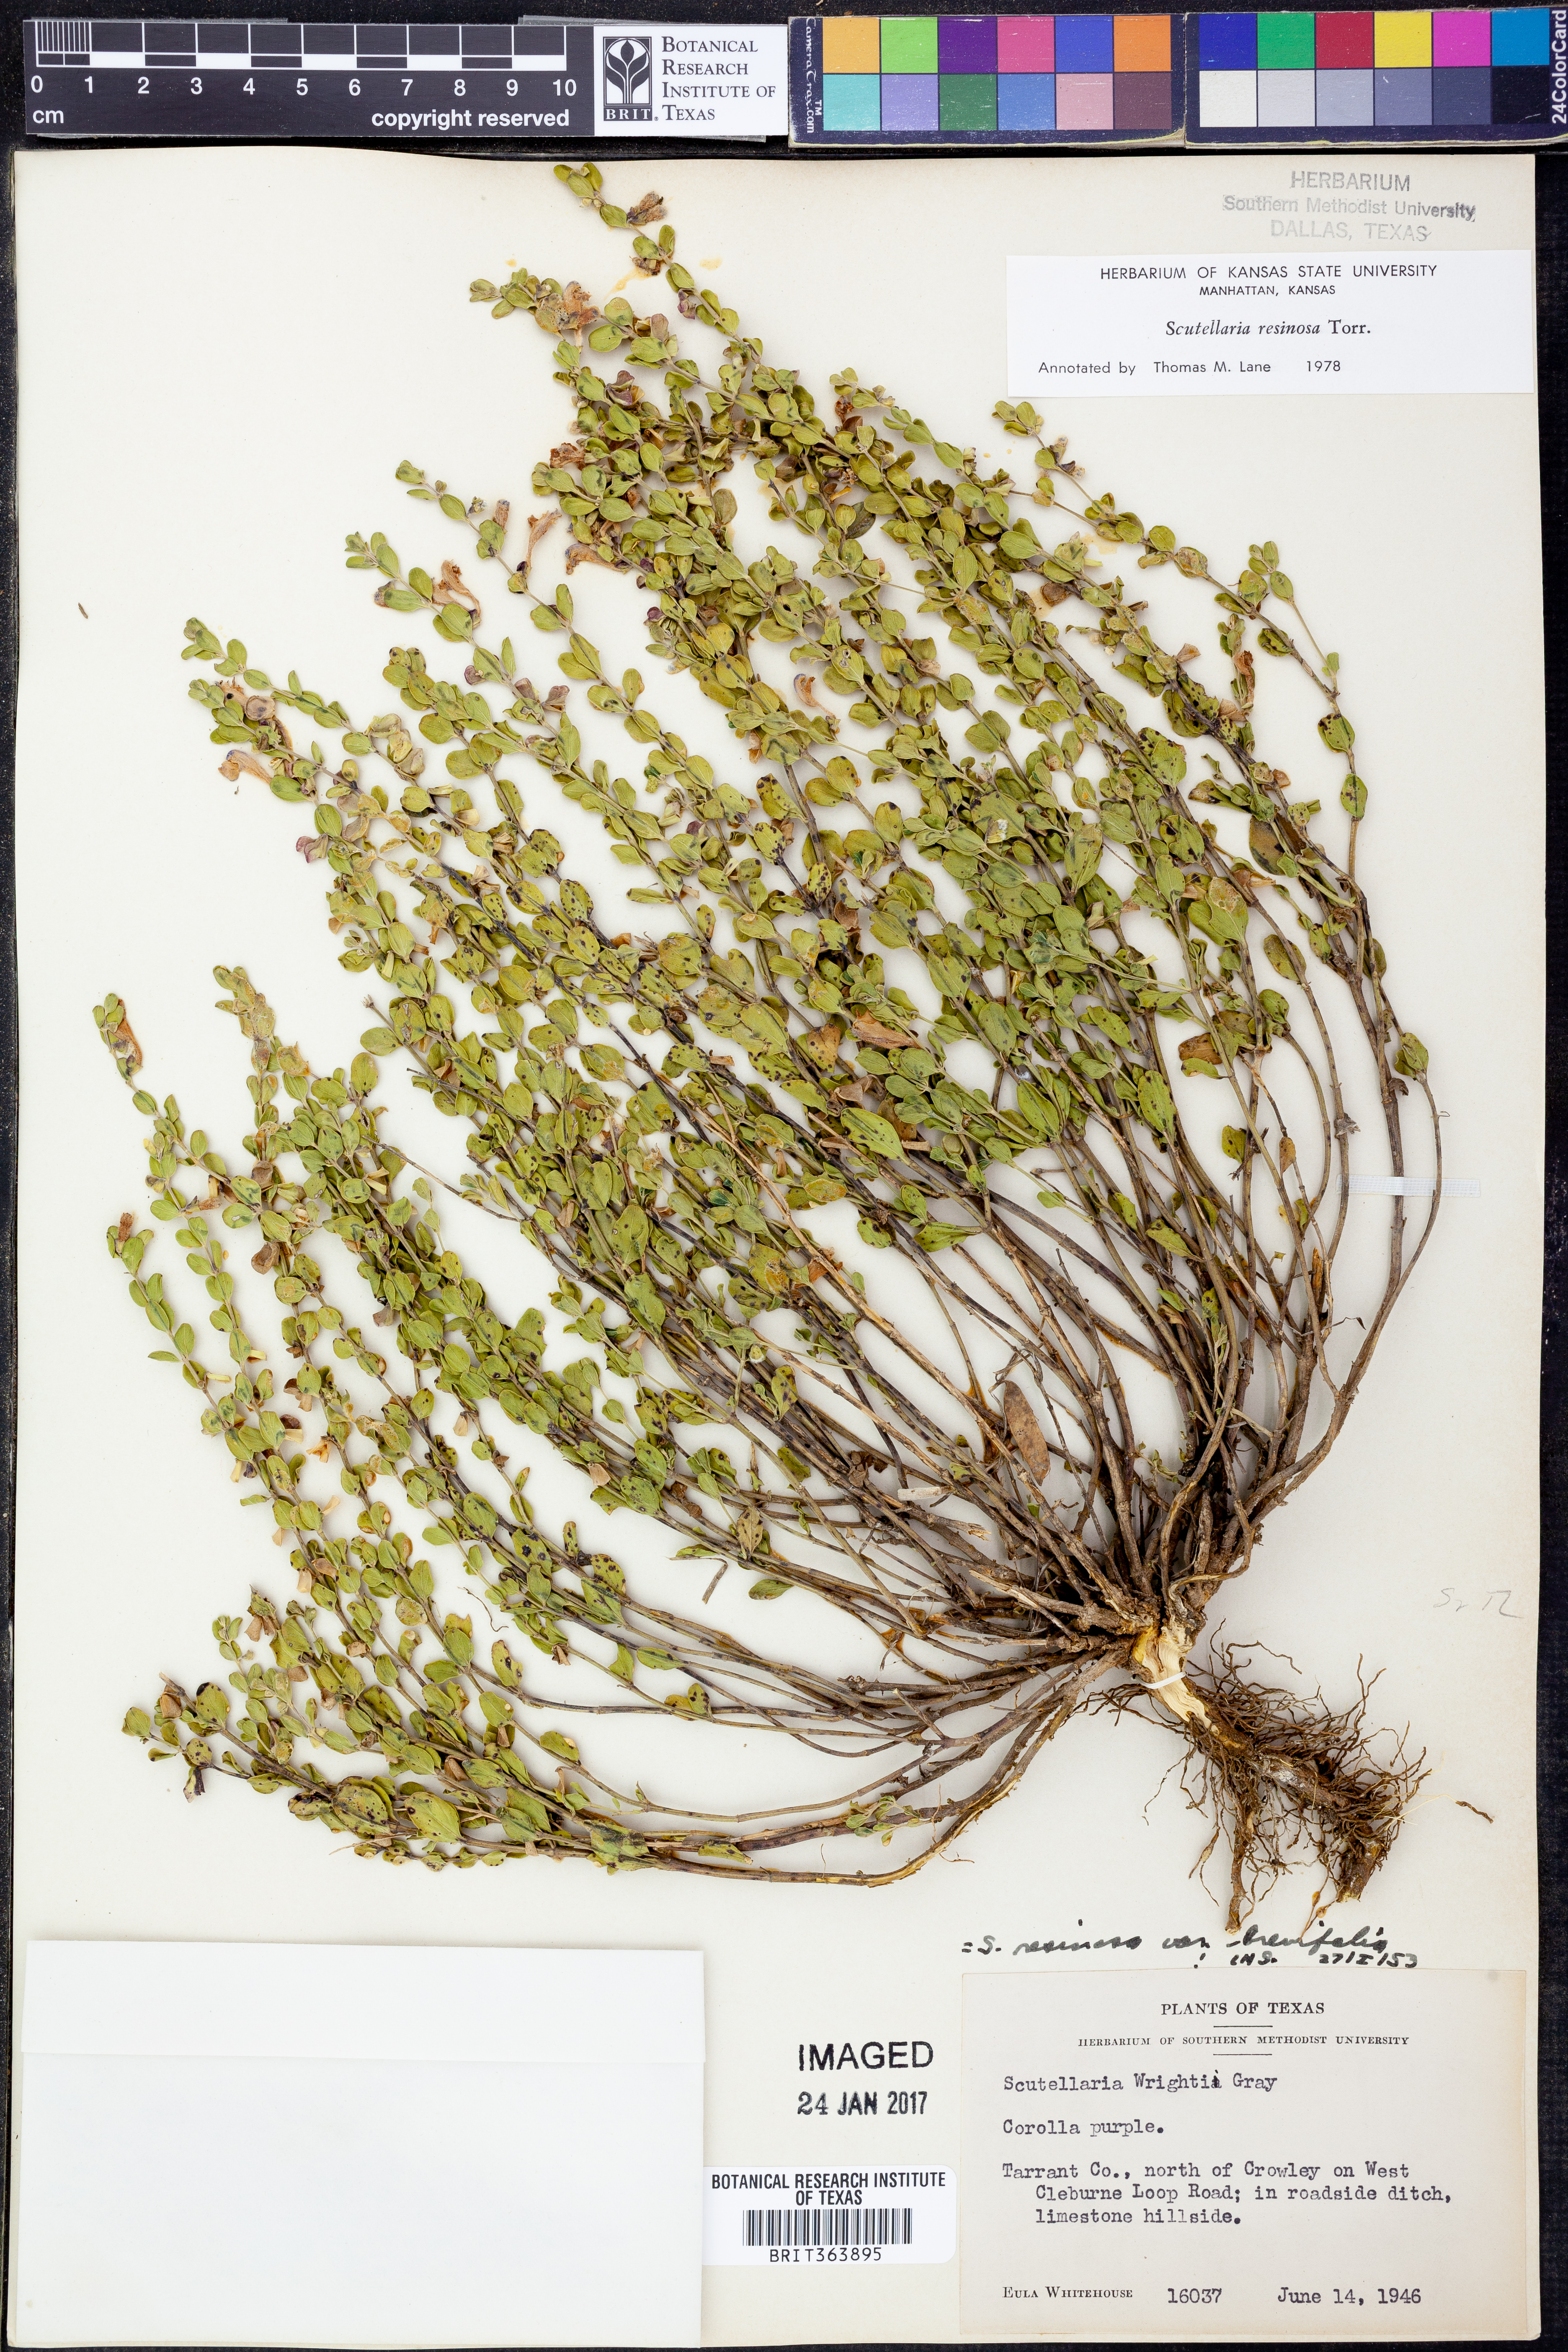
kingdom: Plantae
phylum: Tracheophyta
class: Magnoliopsida
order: Lamiales
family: Lamiaceae
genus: Scutellaria
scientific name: Scutellaria resinosa
